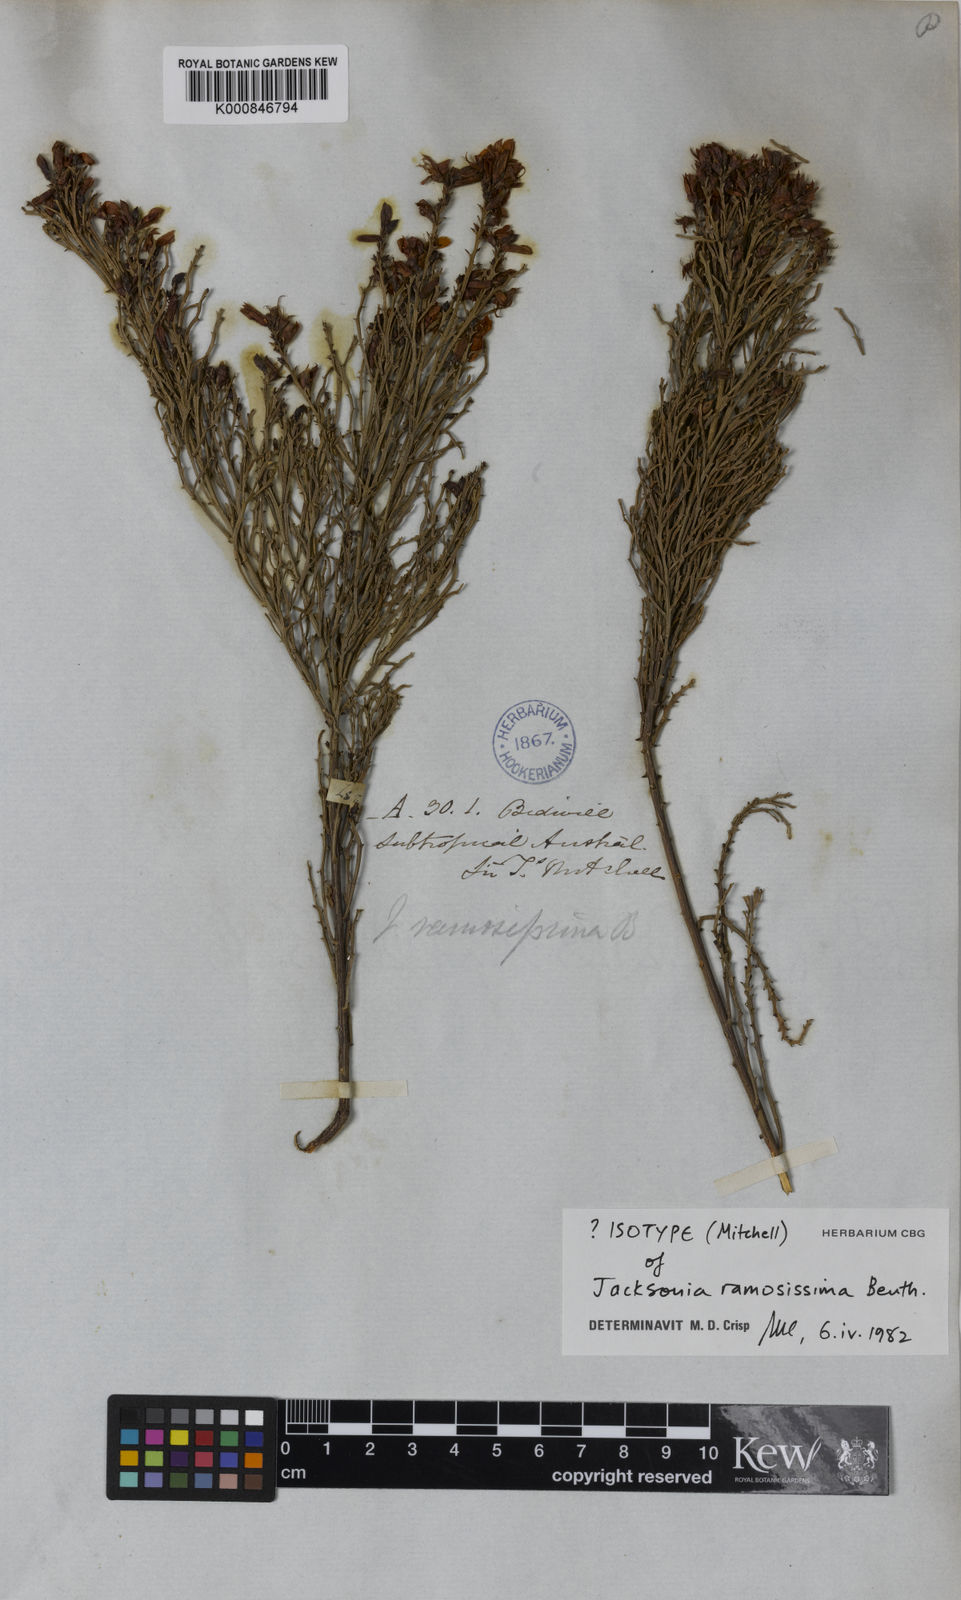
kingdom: Plantae
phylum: Tracheophyta
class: Magnoliopsida
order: Fabales
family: Fabaceae
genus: Jacksonia
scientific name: Jacksonia ramosissima
